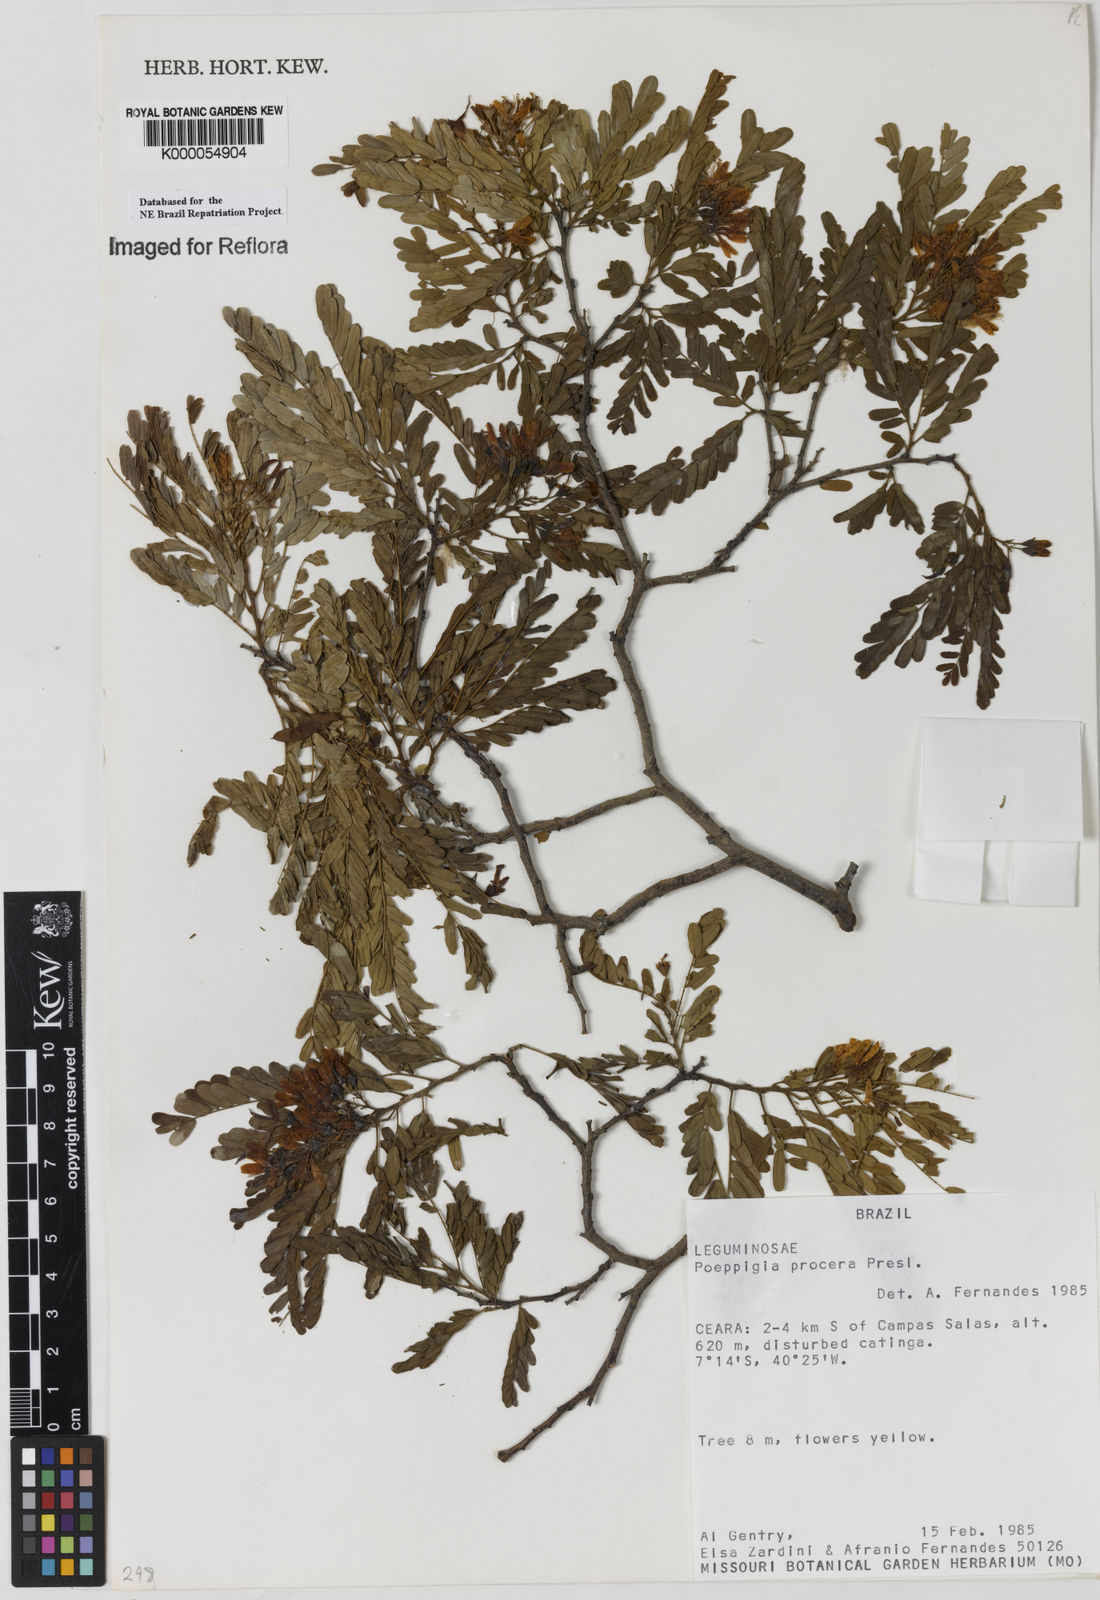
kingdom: Plantae
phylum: Tracheophyta
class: Magnoliopsida
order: Fabales
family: Fabaceae
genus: Poeppigia
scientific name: Poeppigia procera
